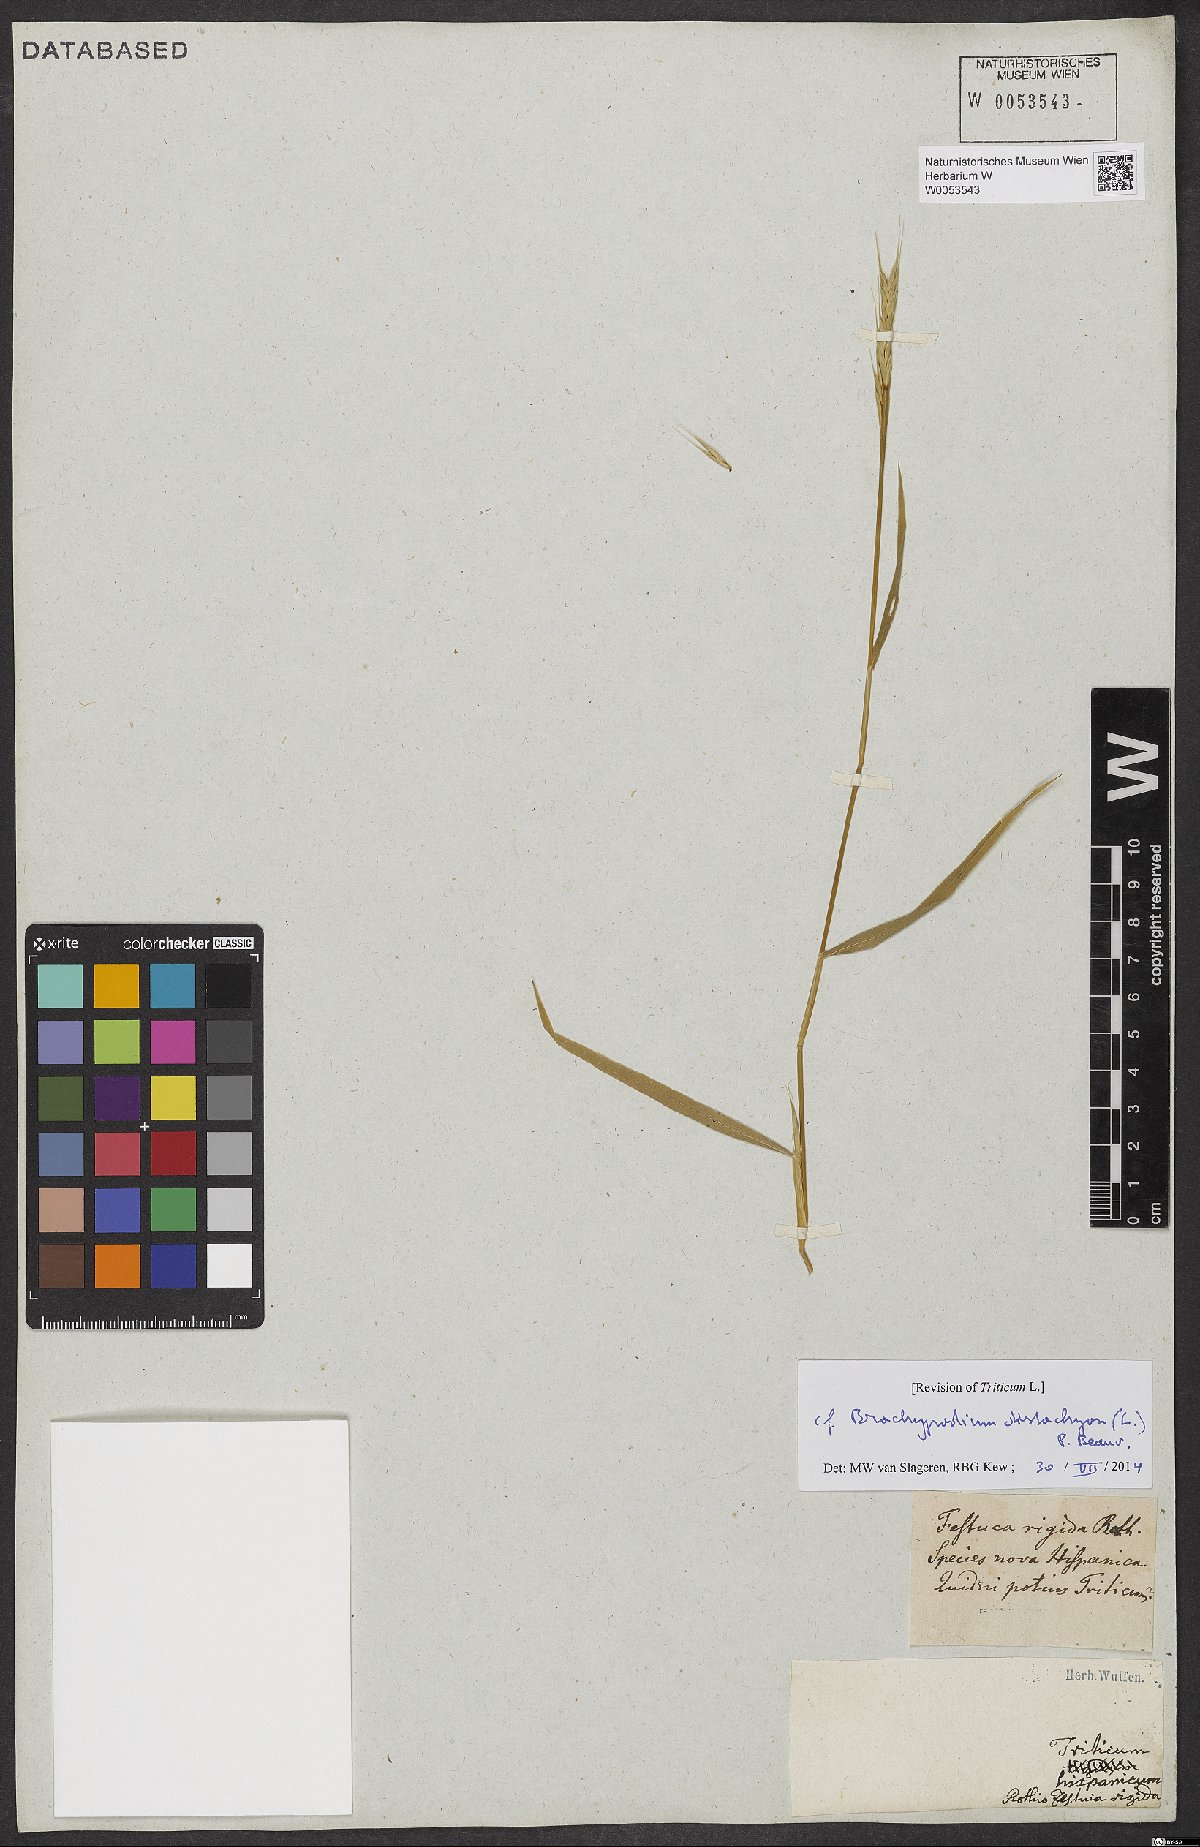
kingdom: Plantae
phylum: Tracheophyta
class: Liliopsida
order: Poales
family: Poaceae
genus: Brachypodium
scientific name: Brachypodium distachyon
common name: Stiff brome
